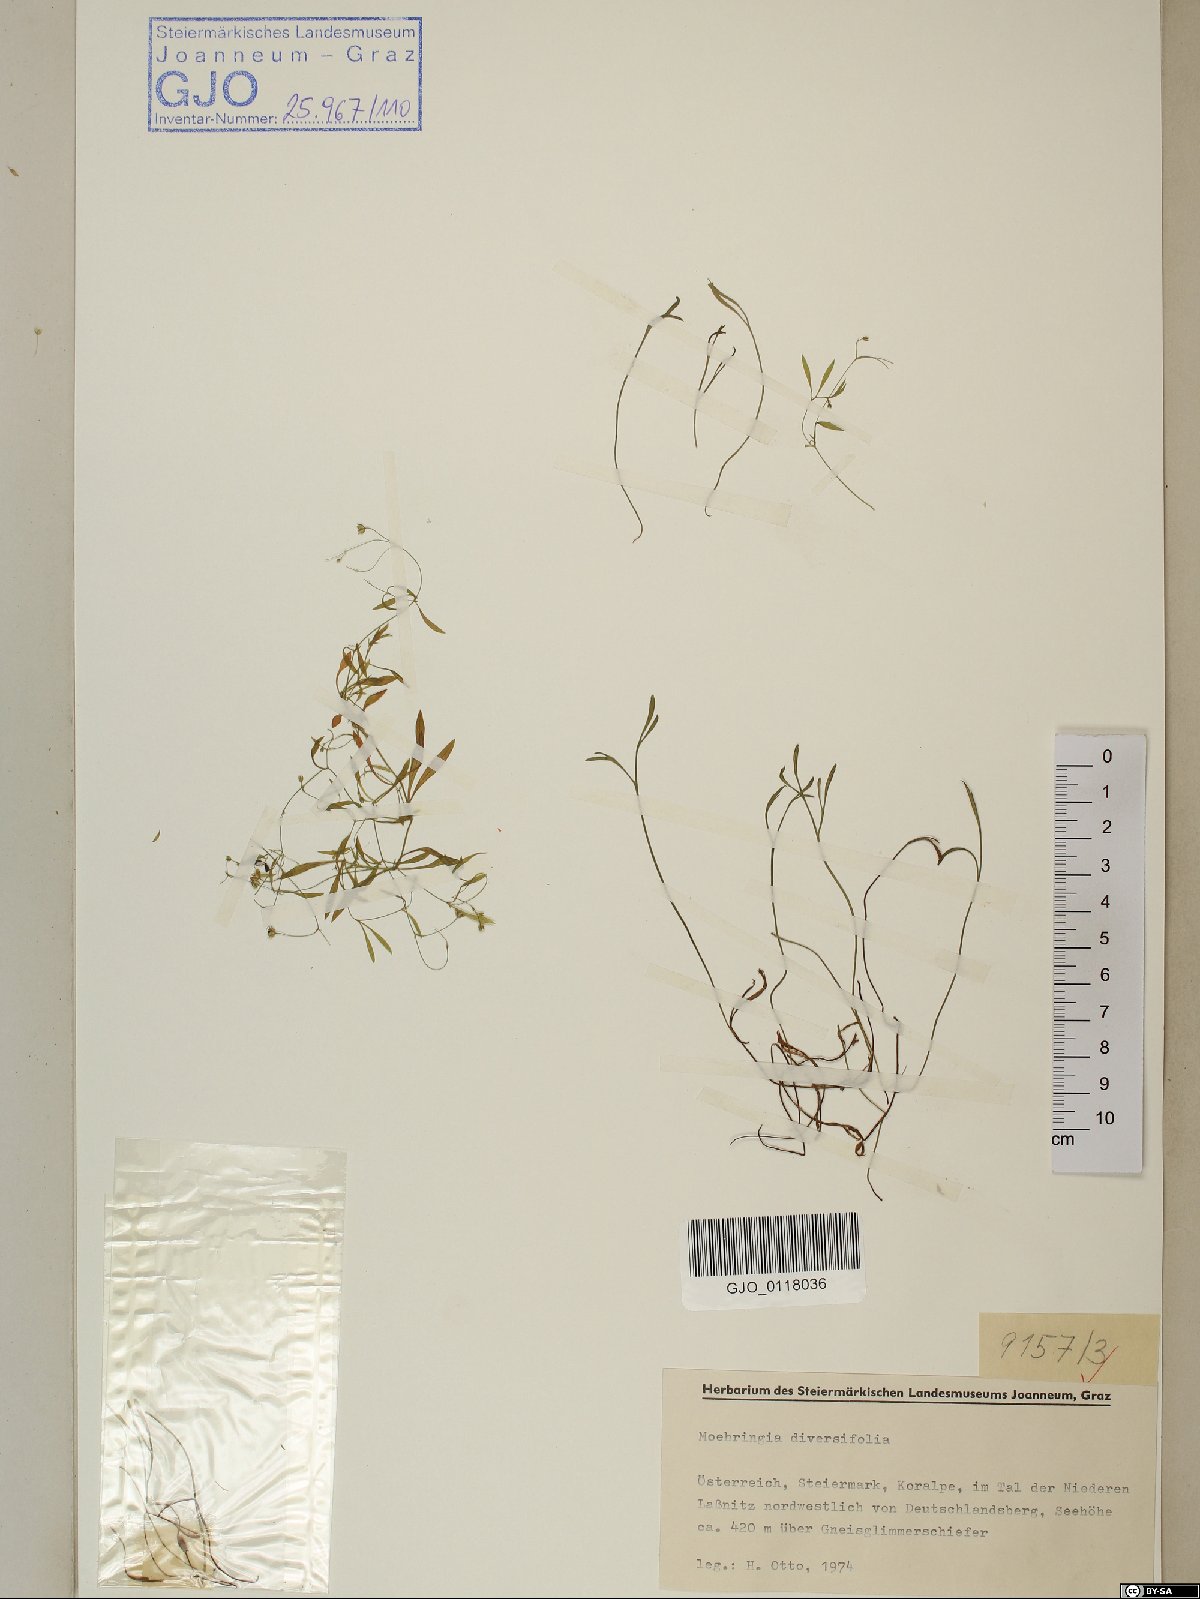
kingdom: Plantae
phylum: Tracheophyta
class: Magnoliopsida
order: Caryophyllales
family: Caryophyllaceae
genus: Moehringia
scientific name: Moehringia diversifolia
